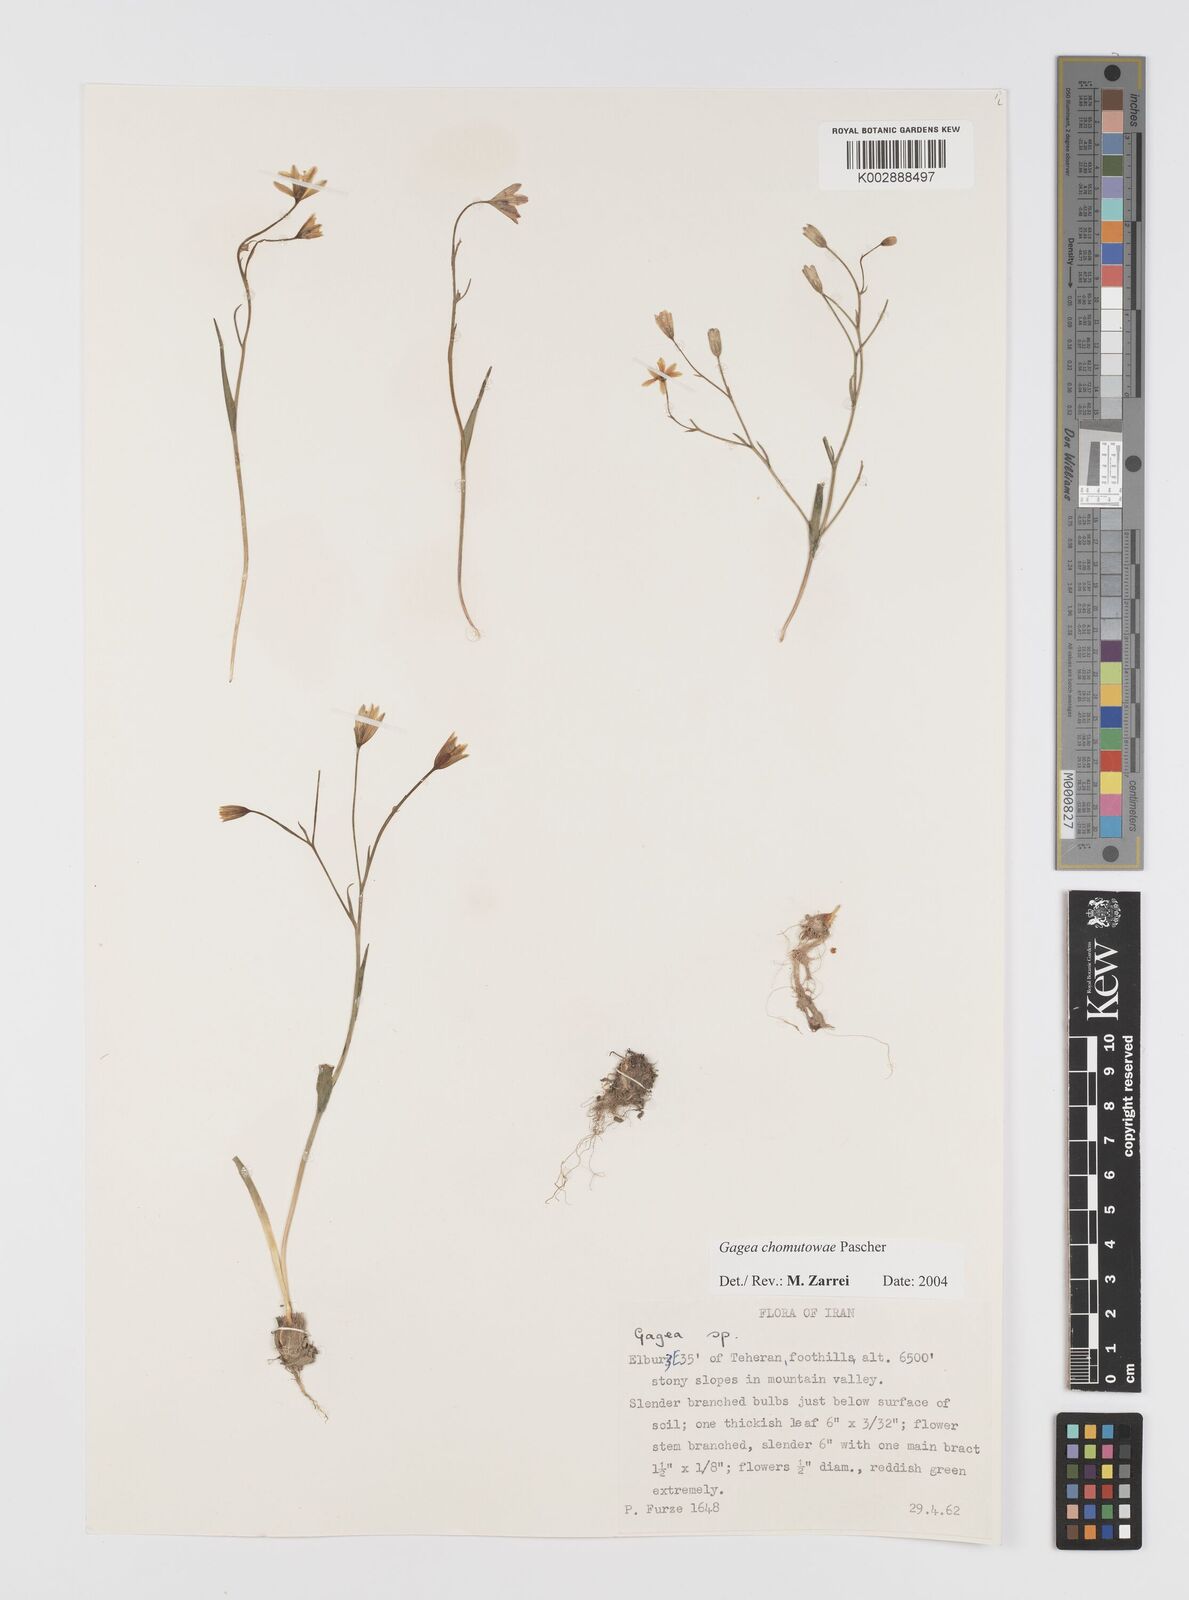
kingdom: Plantae
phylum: Tracheophyta
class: Liliopsida
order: Liliales
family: Liliaceae
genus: Gagea
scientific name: Gagea chomutovae
